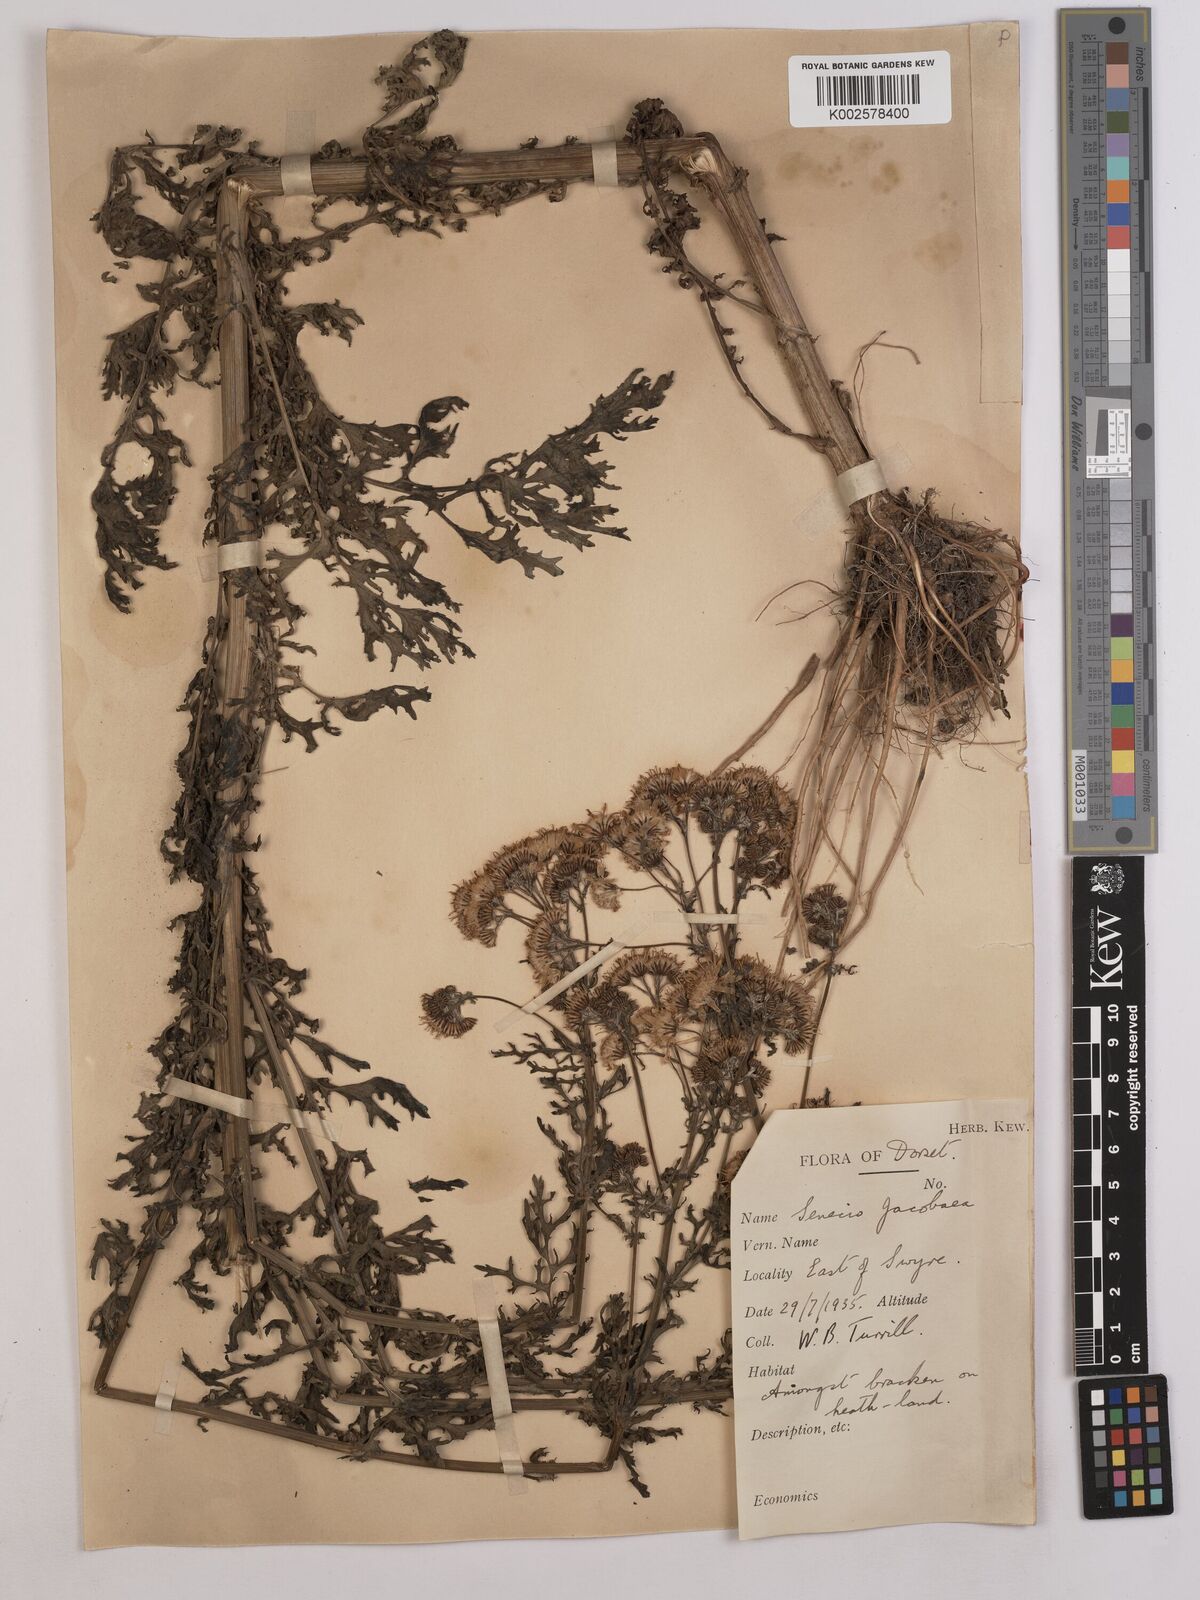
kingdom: Plantae
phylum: Tracheophyta
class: Magnoliopsida
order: Asterales
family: Asteraceae
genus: Jacobaea
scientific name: Jacobaea vulgaris
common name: Stinking willie
